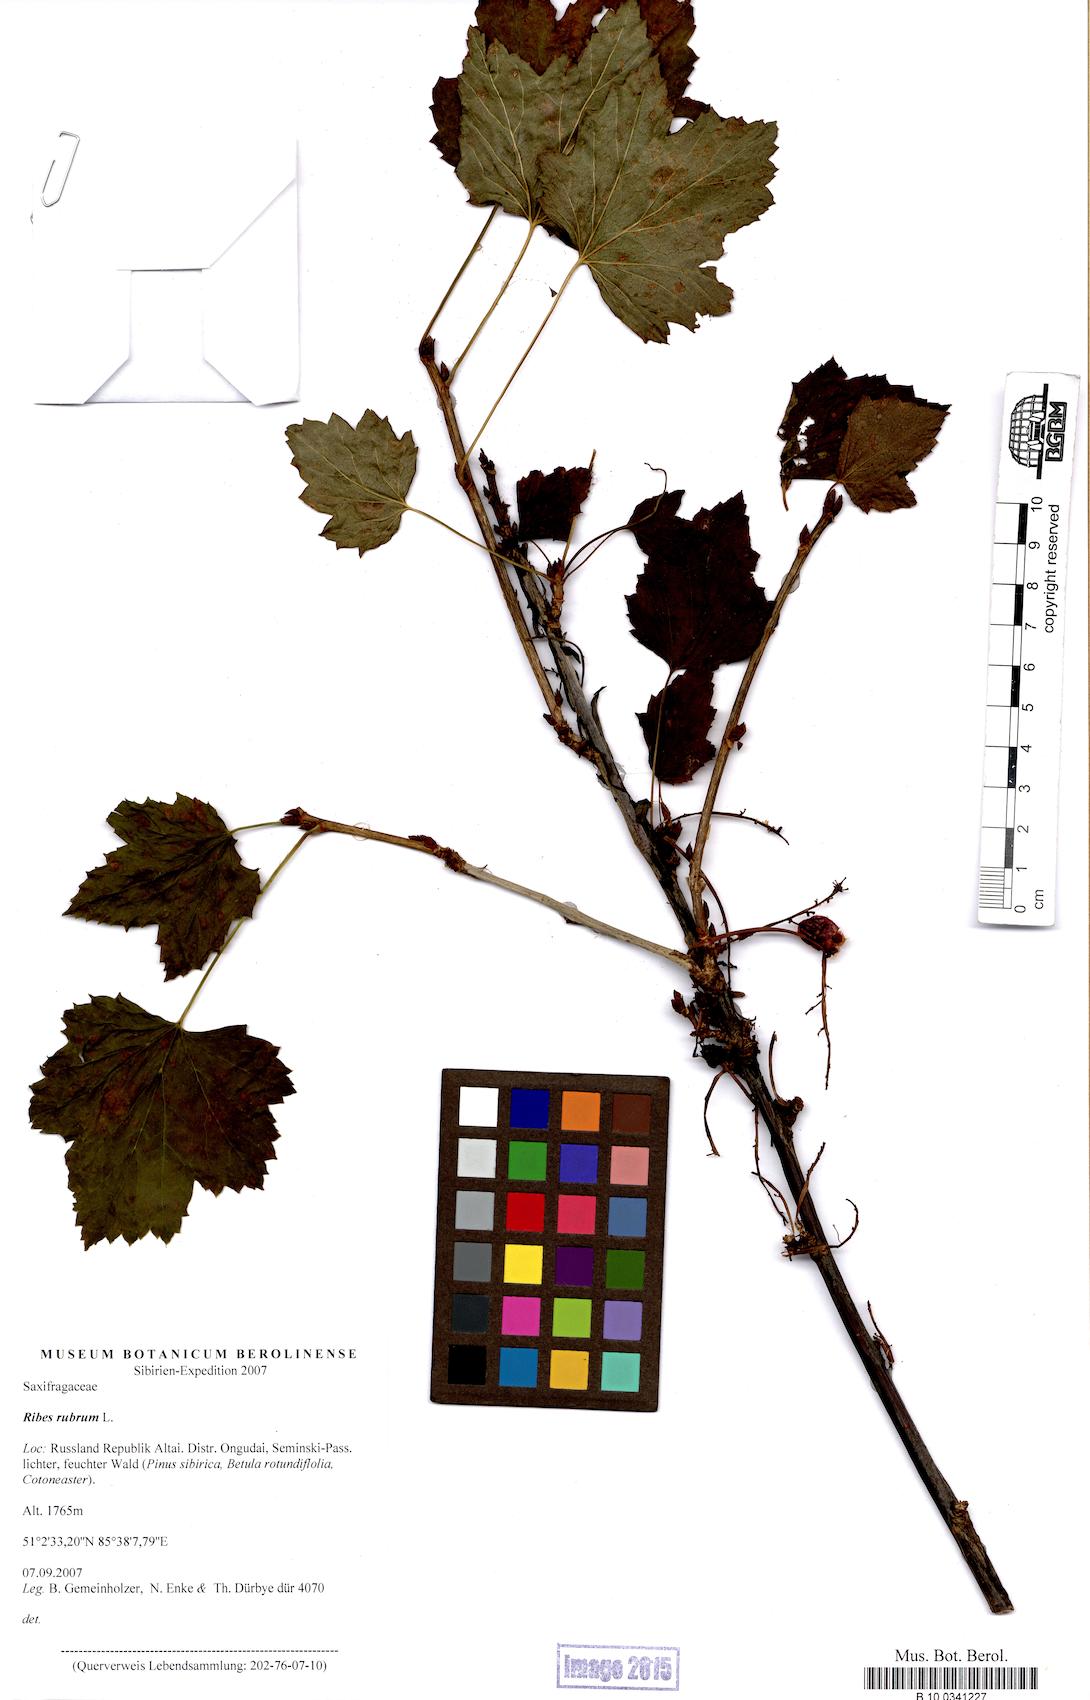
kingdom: Plantae
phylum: Tracheophyta
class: Magnoliopsida
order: Saxifragales
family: Grossulariaceae
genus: Ribes
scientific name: Ribes rubrum
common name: Red currant
